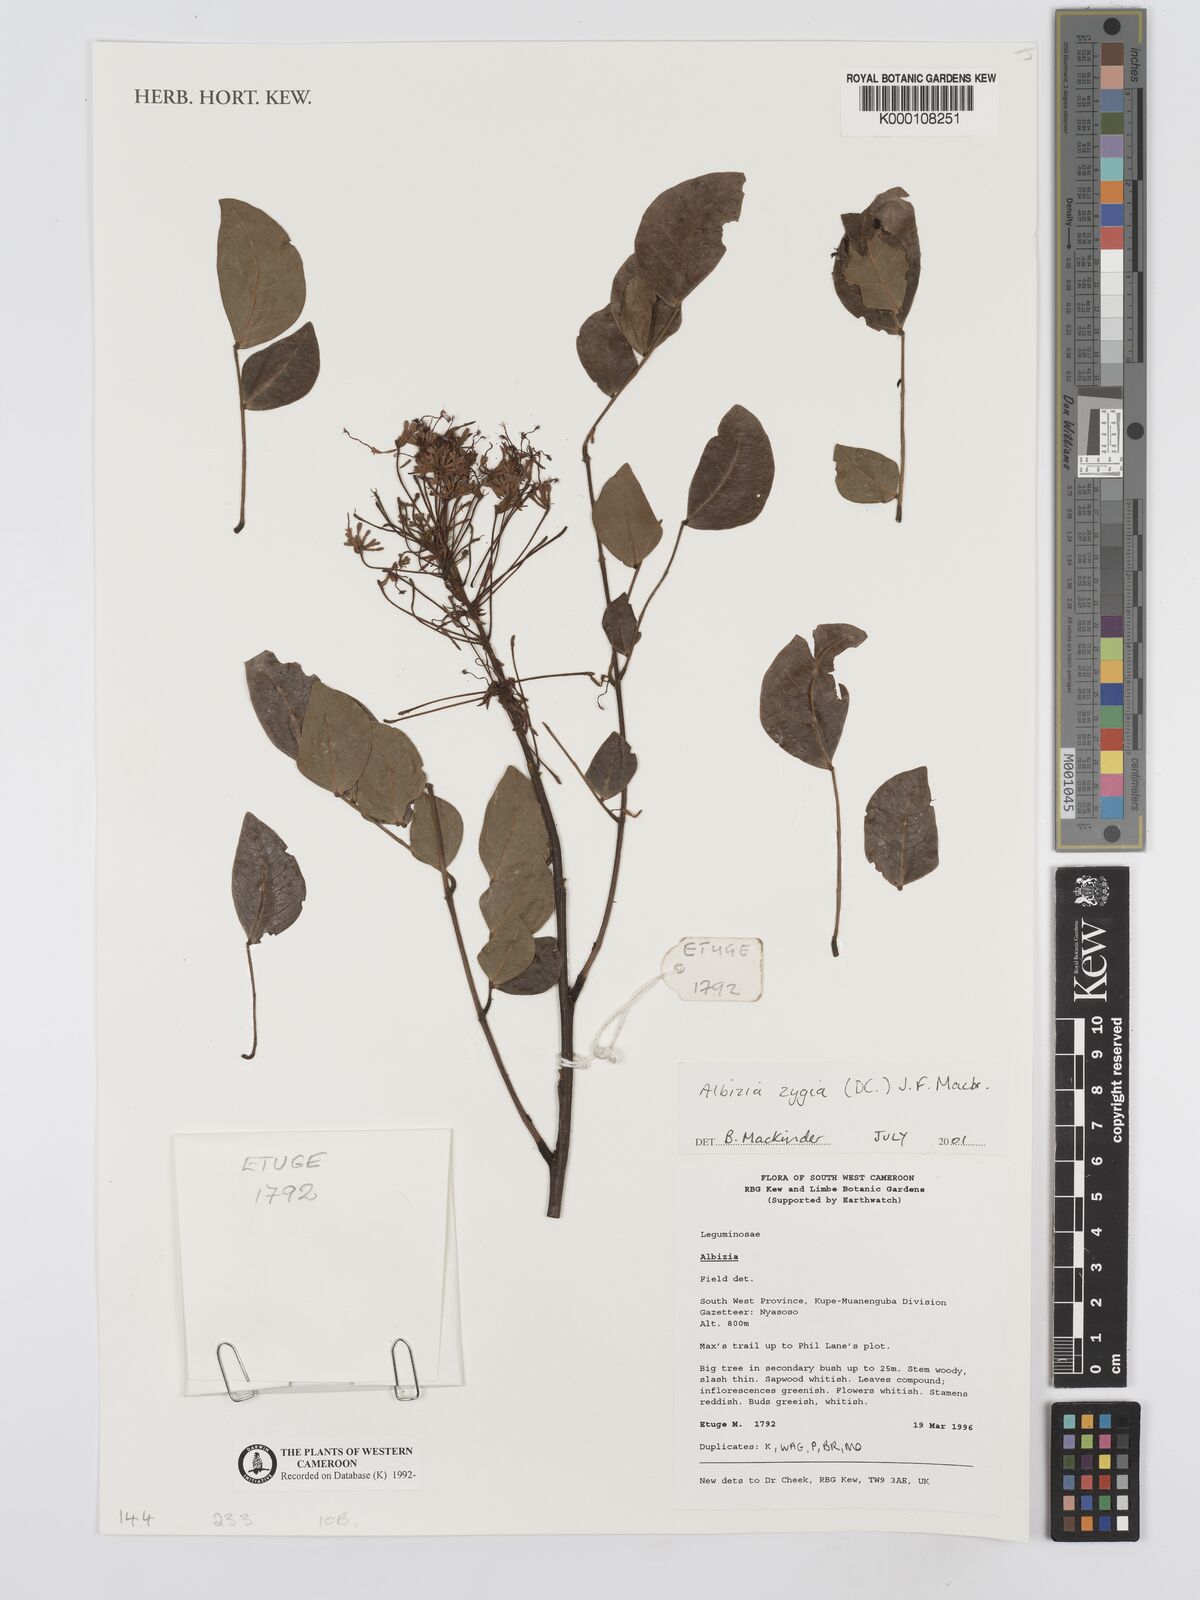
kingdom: Plantae
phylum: Tracheophyta
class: Magnoliopsida
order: Fabales
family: Fabaceae
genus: Albizia
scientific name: Albizia zygia
